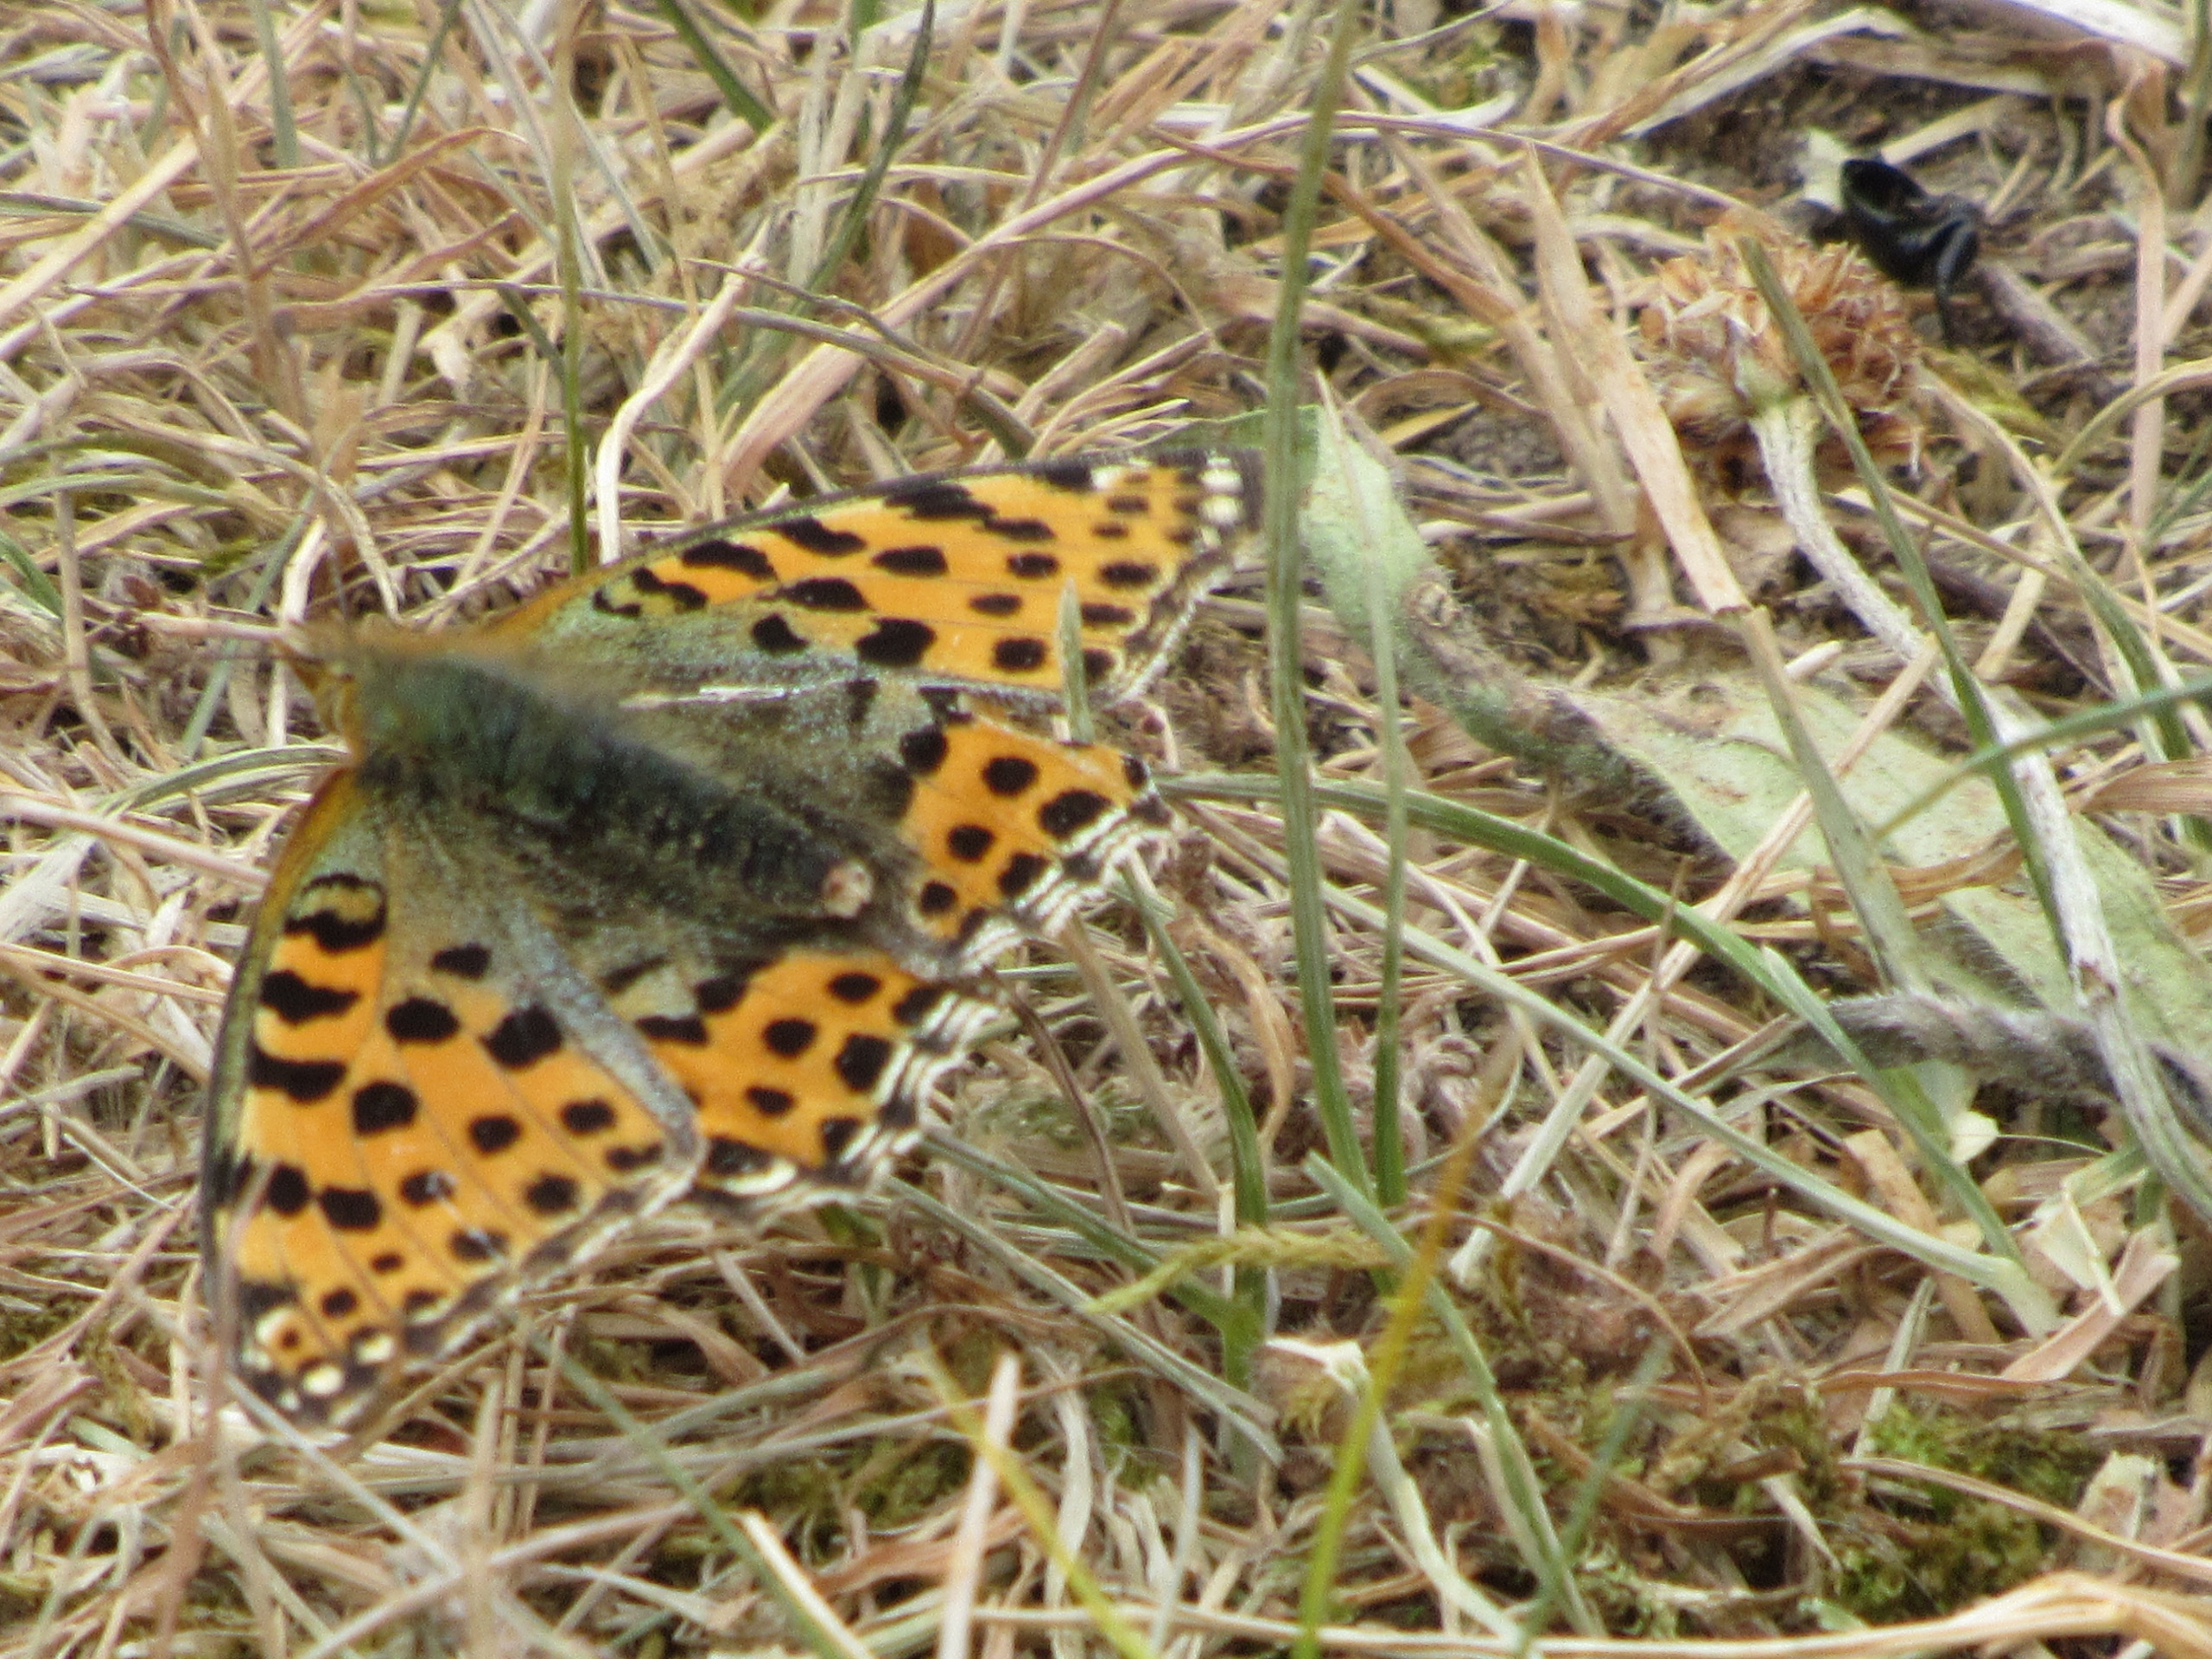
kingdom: Animalia
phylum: Arthropoda
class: Insecta
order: Lepidoptera
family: Nymphalidae
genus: Issoria
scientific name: Issoria lathonia
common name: Storplettet perlemorsommerfugl
